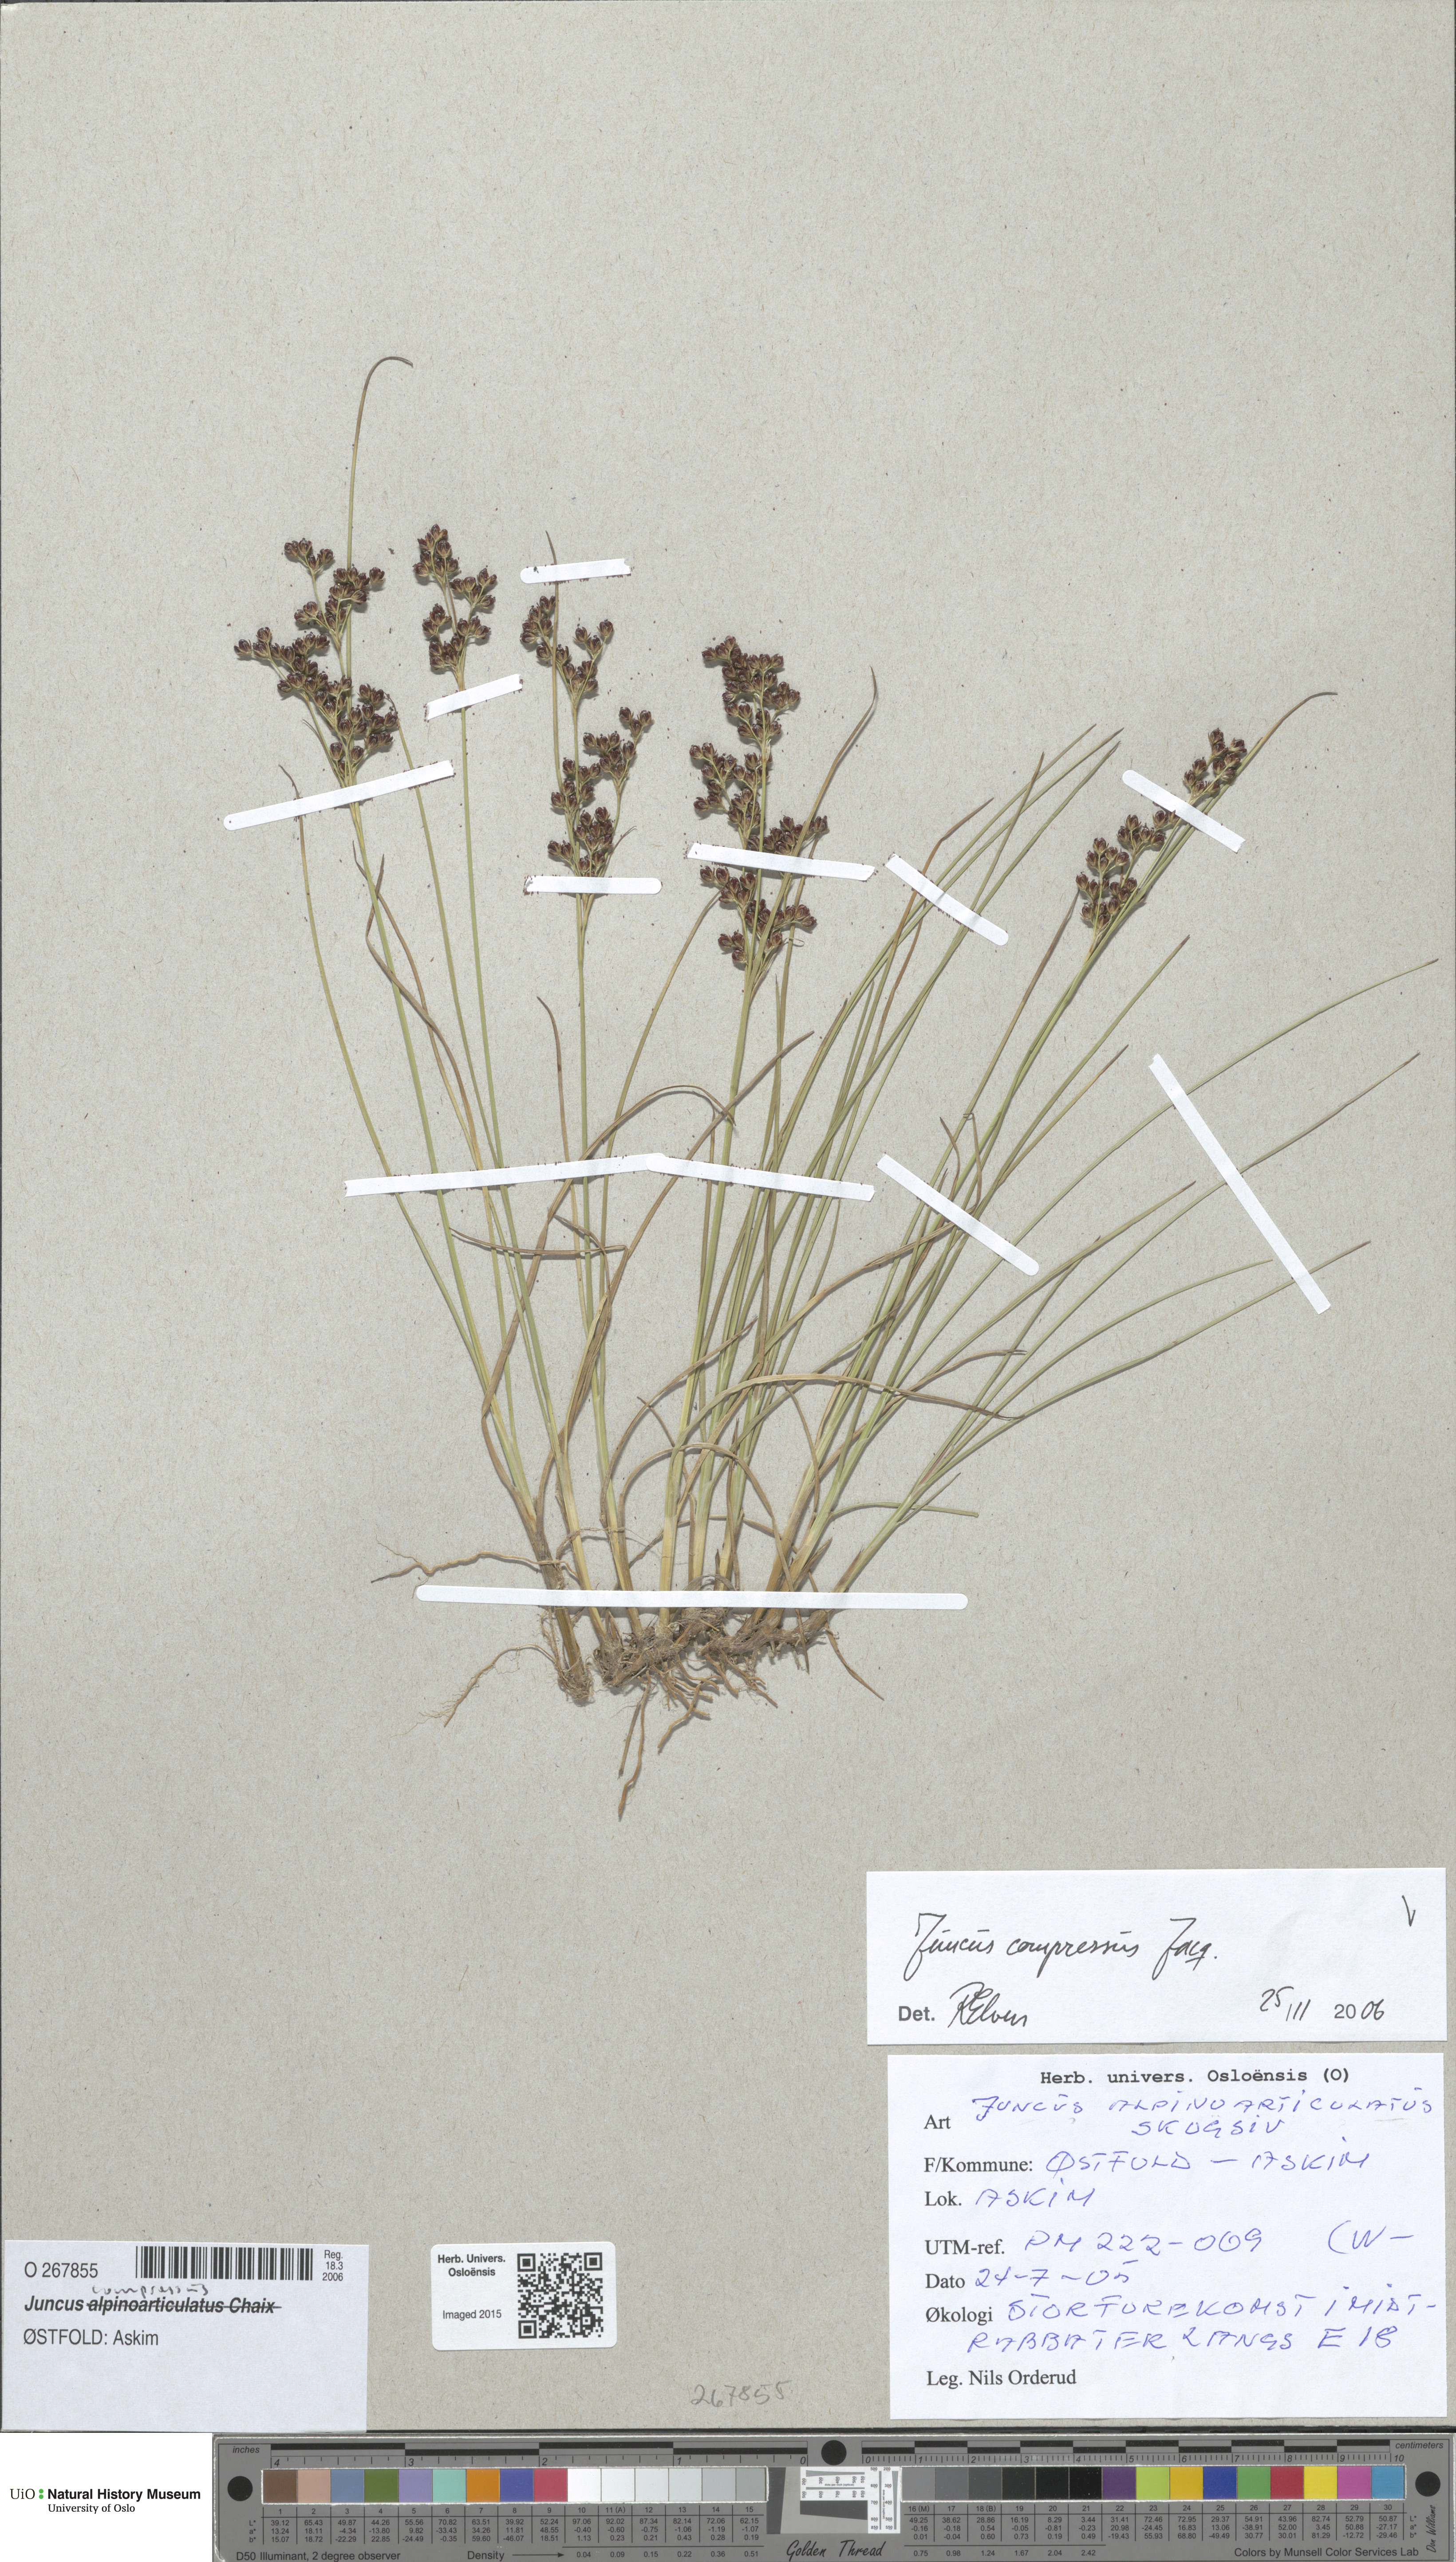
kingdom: Plantae
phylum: Tracheophyta
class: Liliopsida
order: Poales
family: Juncaceae
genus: Juncus
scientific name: Juncus compressus
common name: Round-fruited rush
